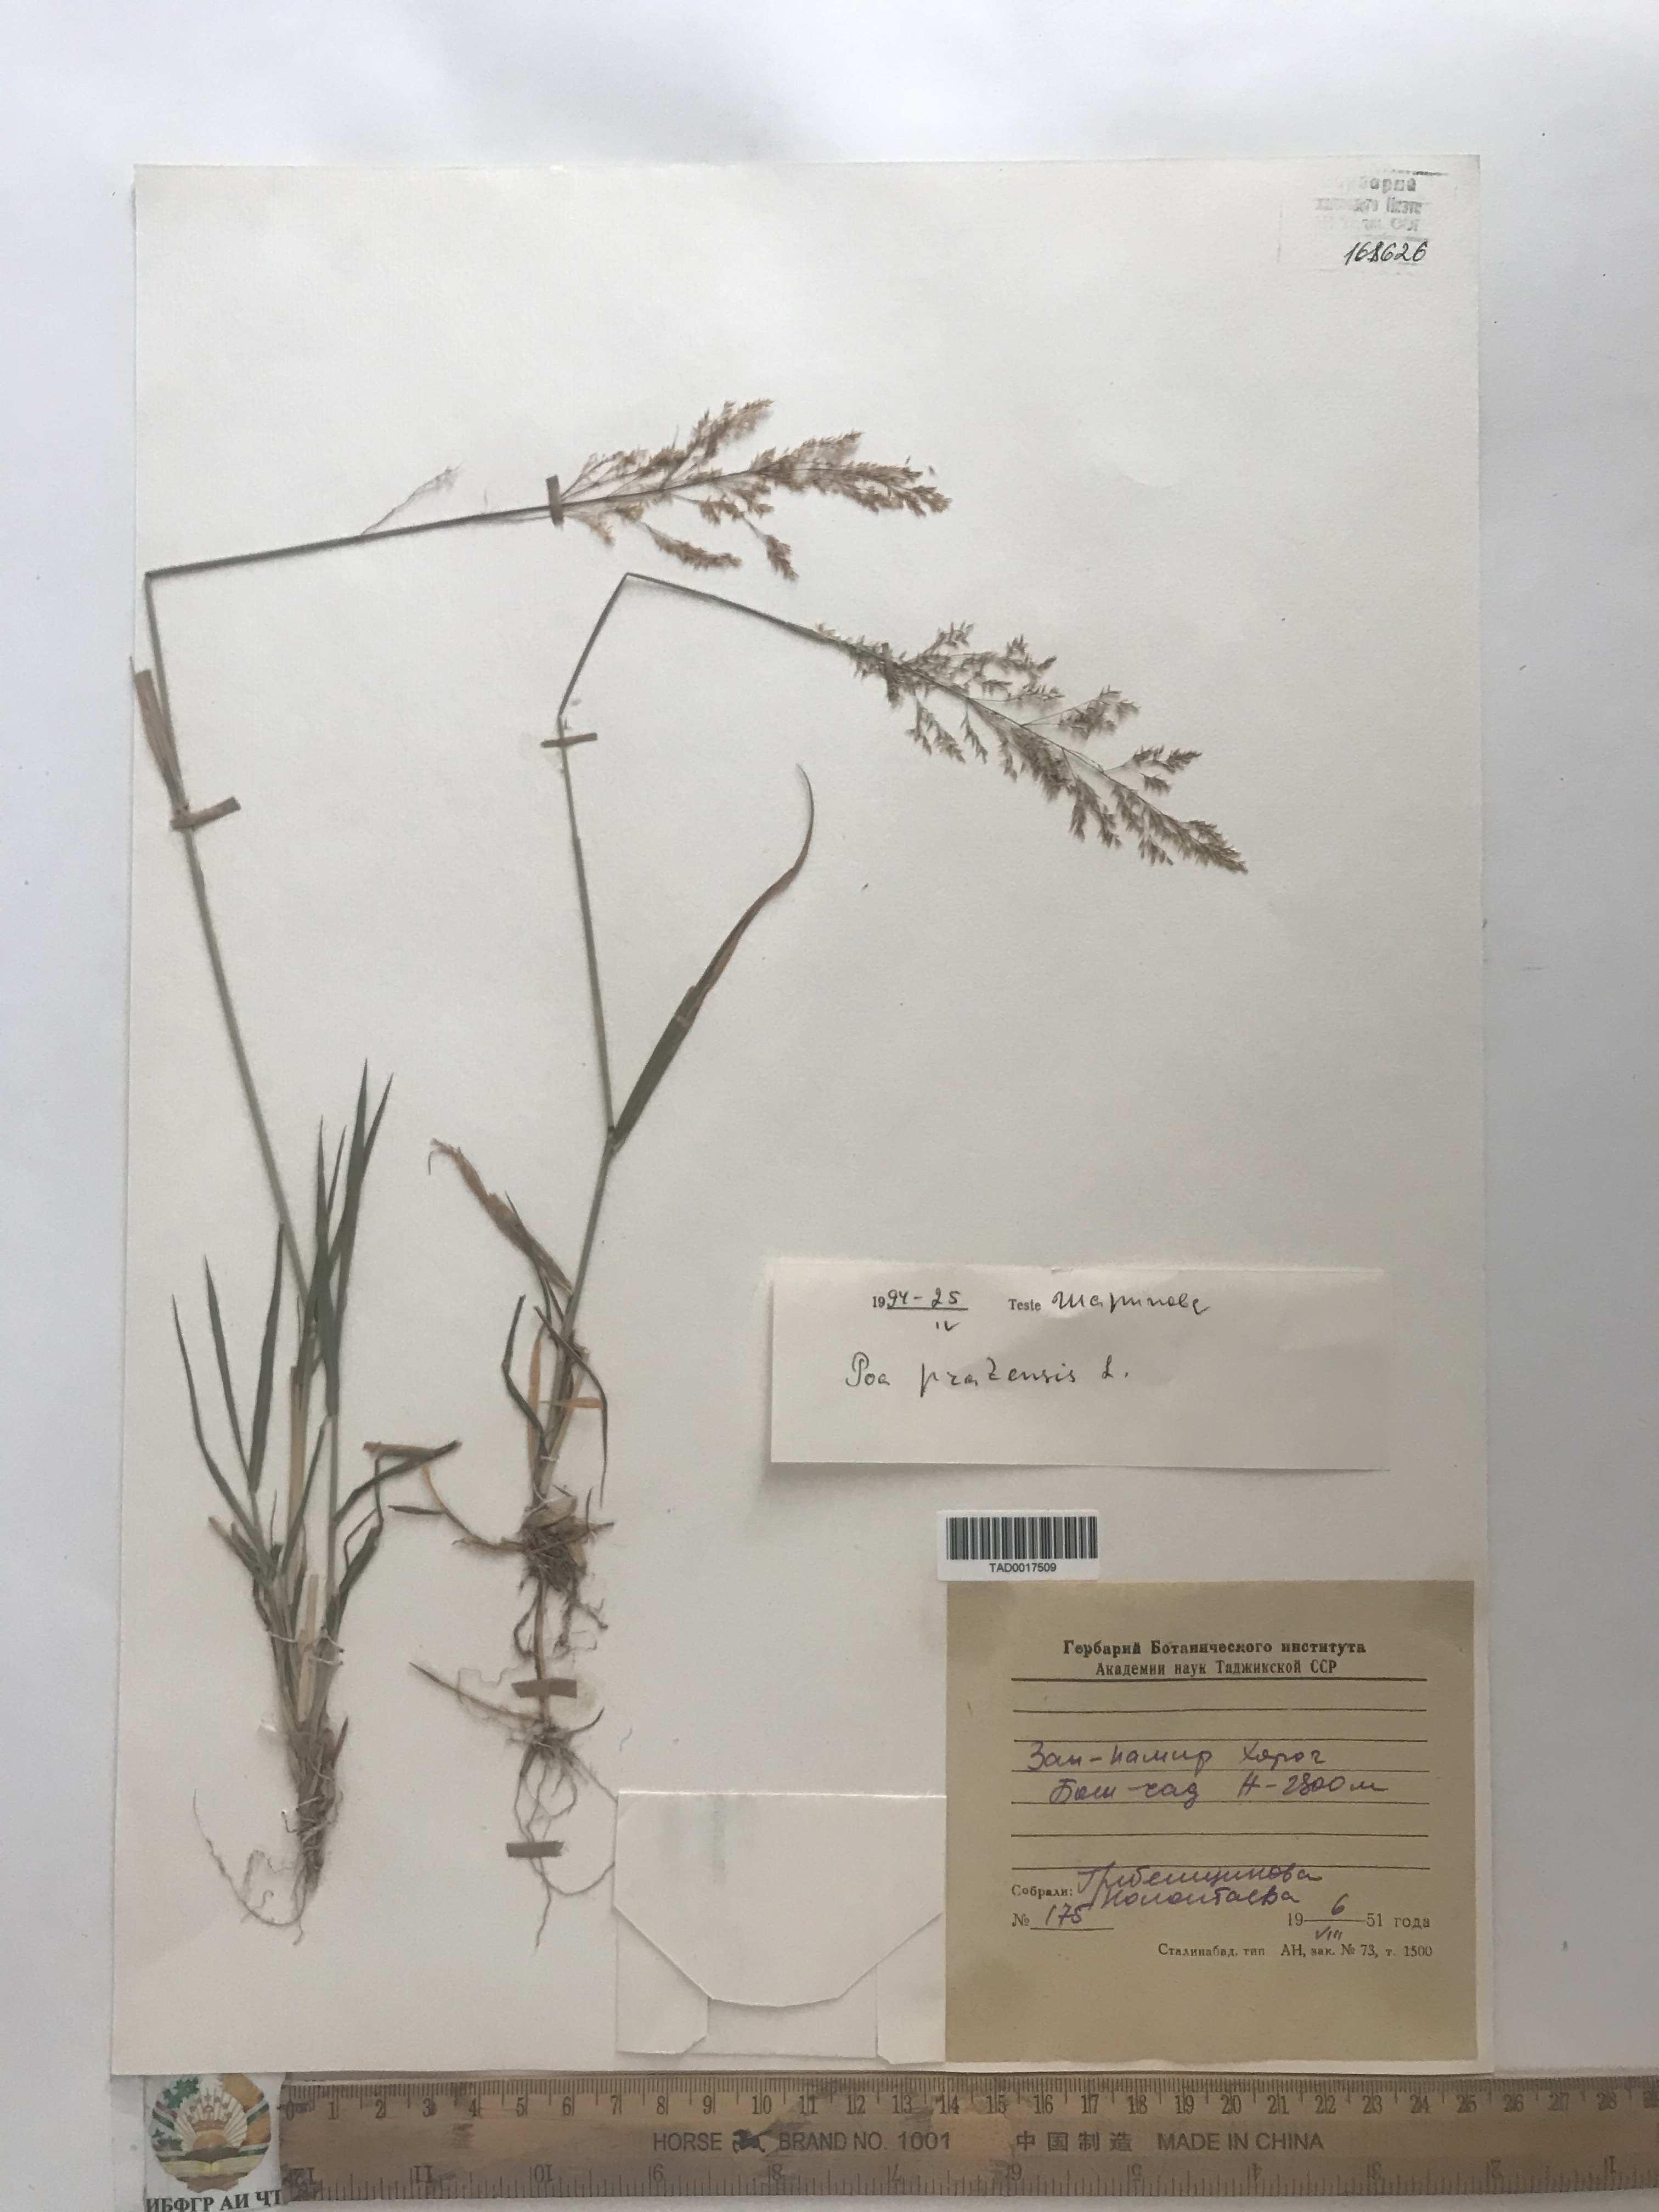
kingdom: Plantae
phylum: Tracheophyta
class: Liliopsida
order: Poales
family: Poaceae
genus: Poa
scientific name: Poa pratensis
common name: Kentucky bluegrass
